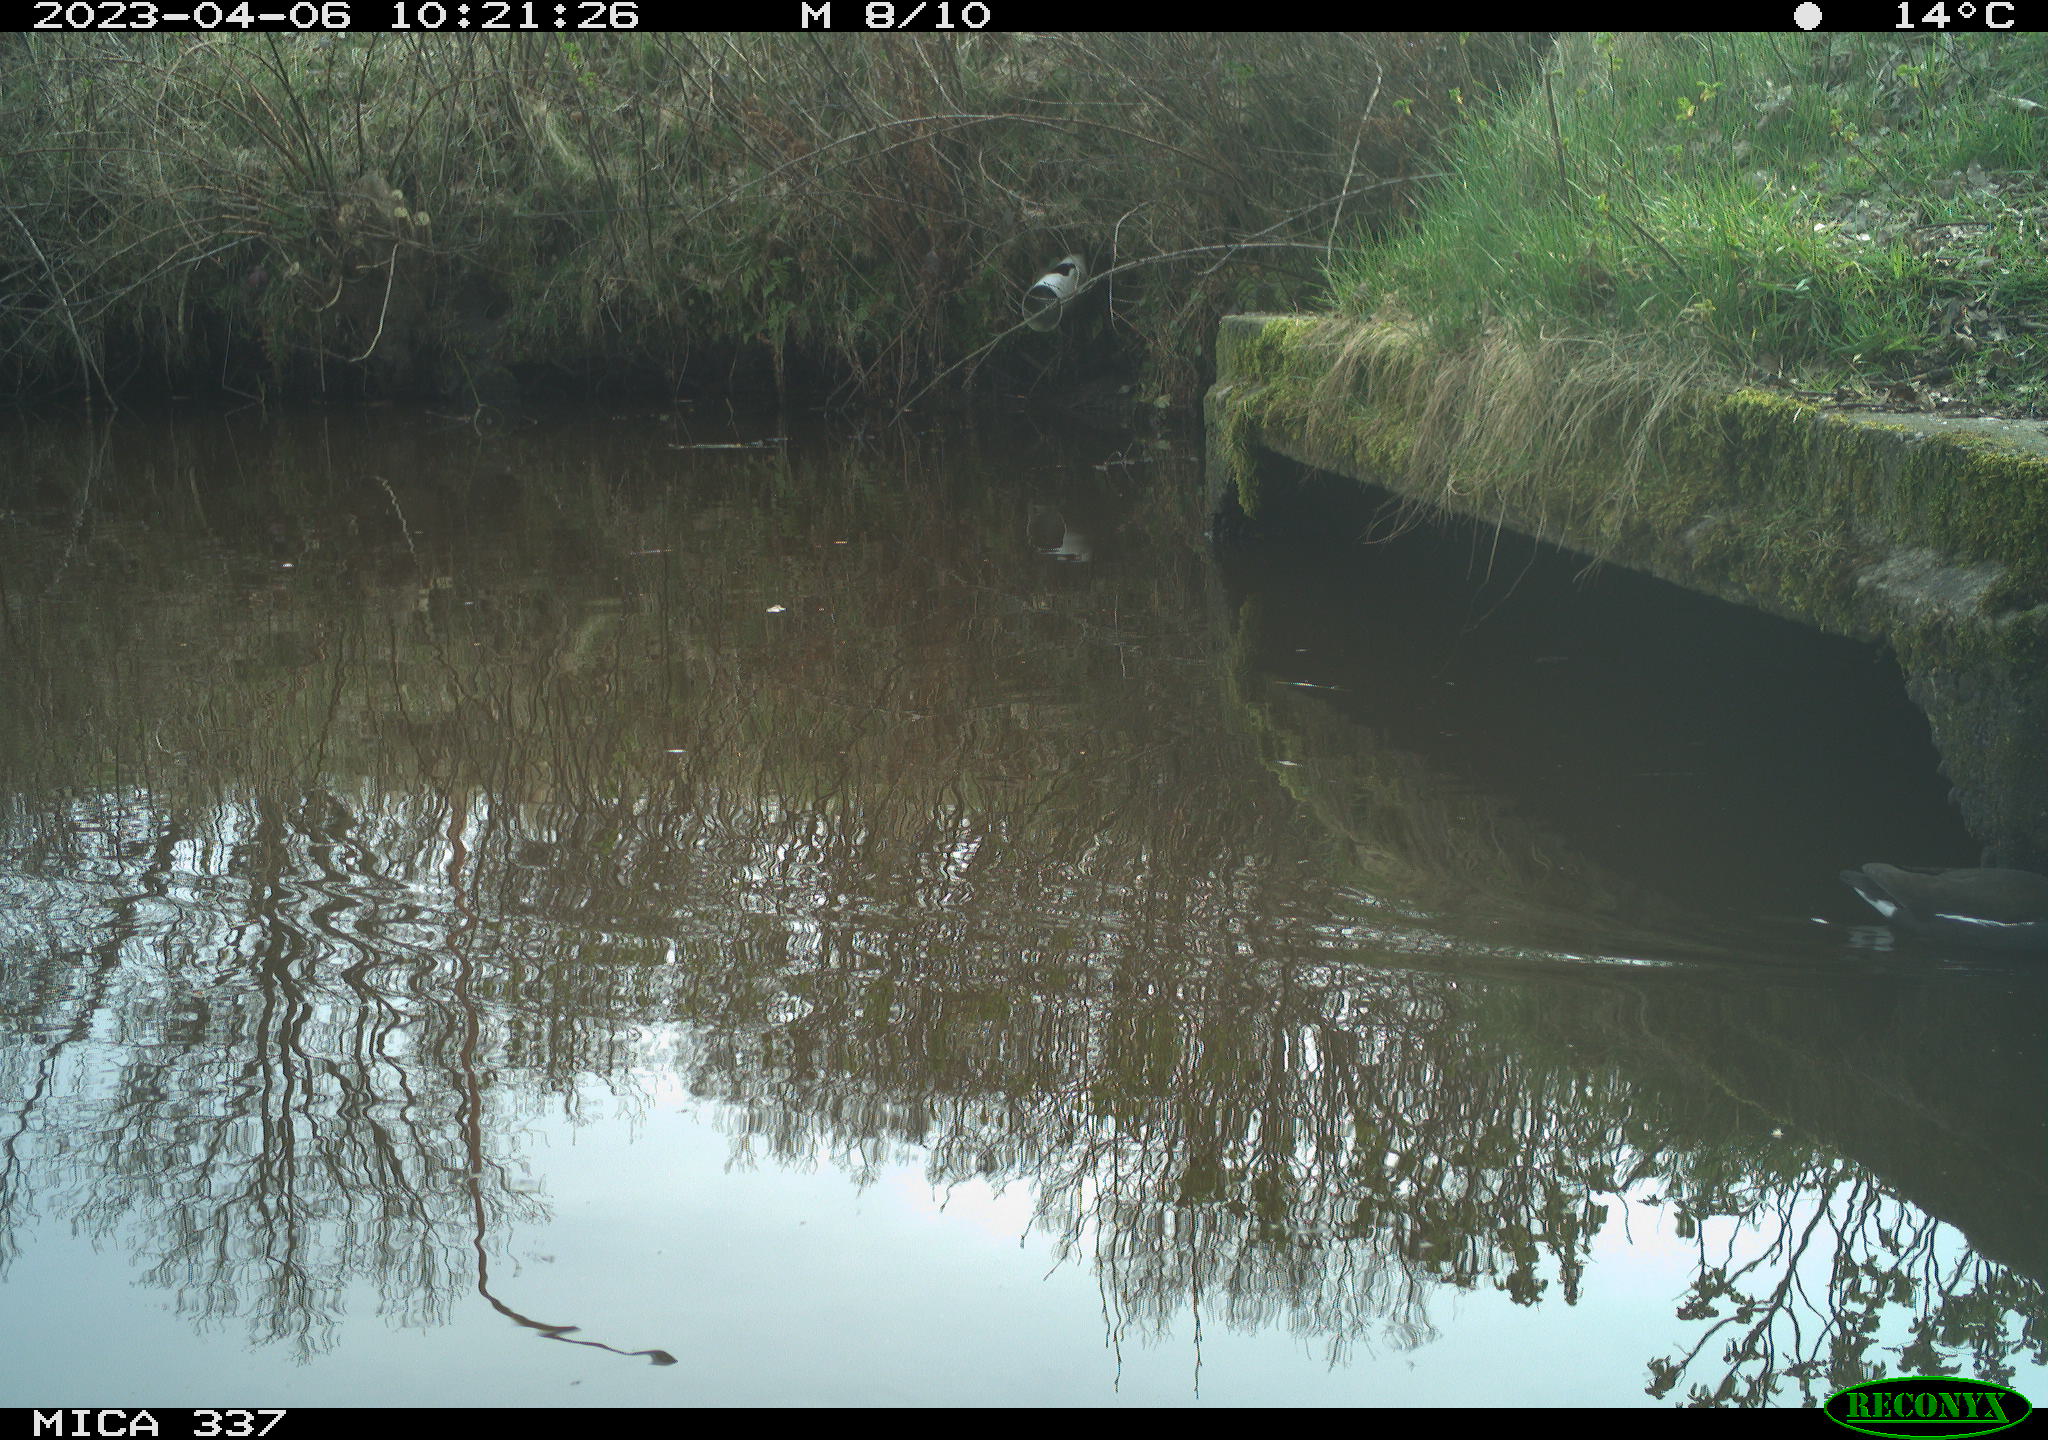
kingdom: Animalia
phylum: Chordata
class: Aves
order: Gruiformes
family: Rallidae
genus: Gallinula
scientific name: Gallinula chloropus
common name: Common moorhen
